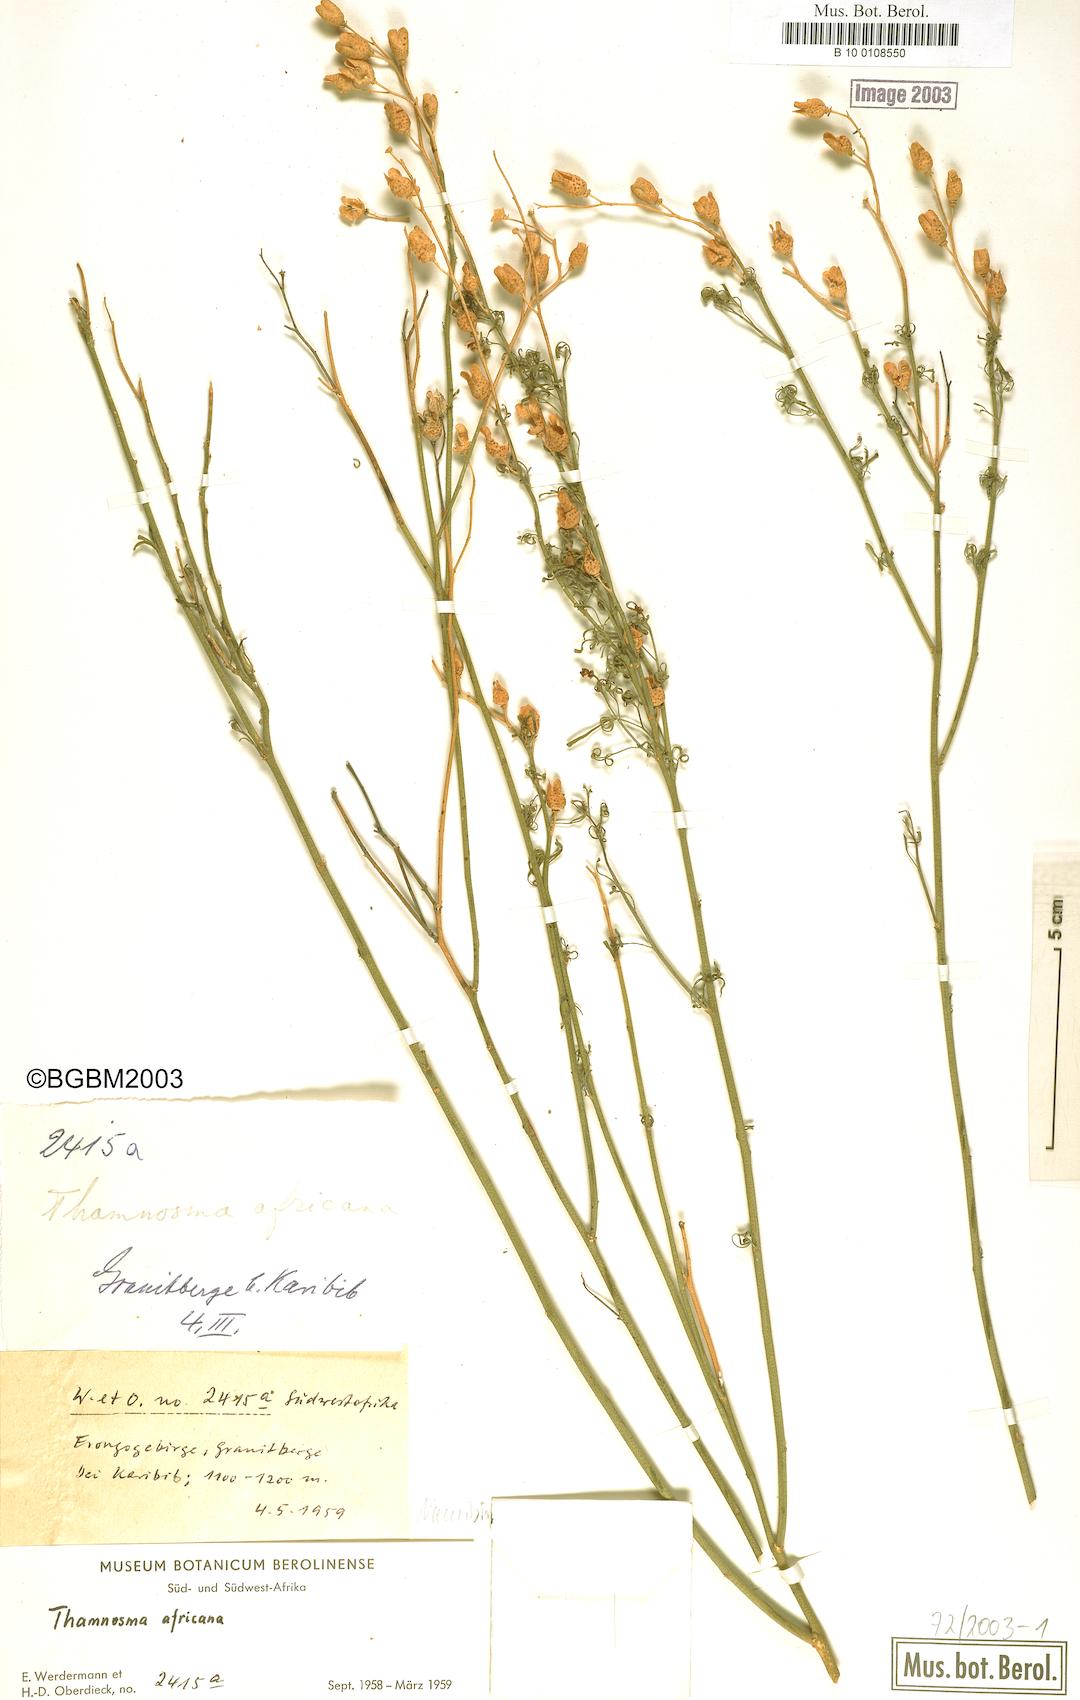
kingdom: Plantae
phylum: Tracheophyta
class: Magnoliopsida
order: Sapindales
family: Rutaceae
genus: Thamnosma
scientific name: Thamnosma africana
